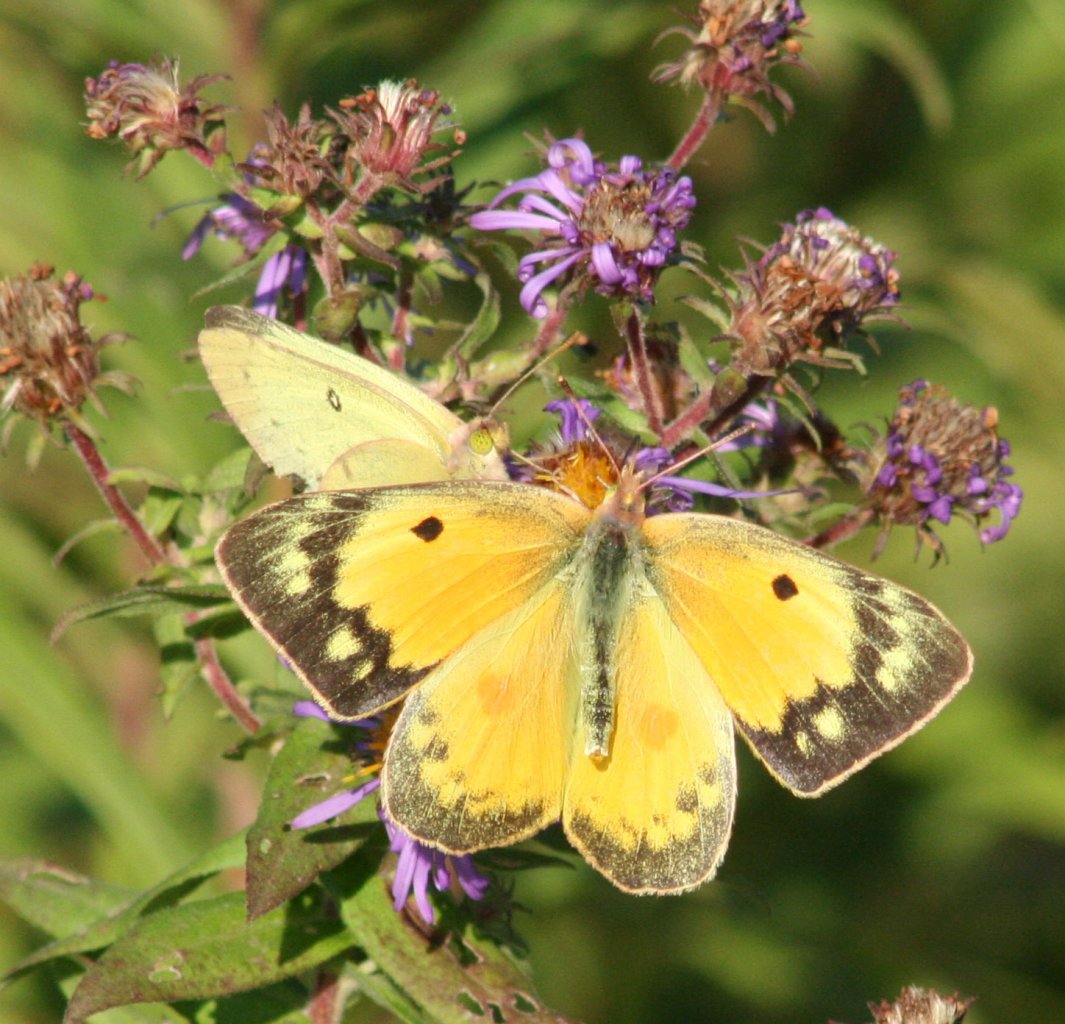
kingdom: Animalia
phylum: Arthropoda
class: Insecta
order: Lepidoptera
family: Pieridae
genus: Colias
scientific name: Colias eurytheme
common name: Orange Sulphur
